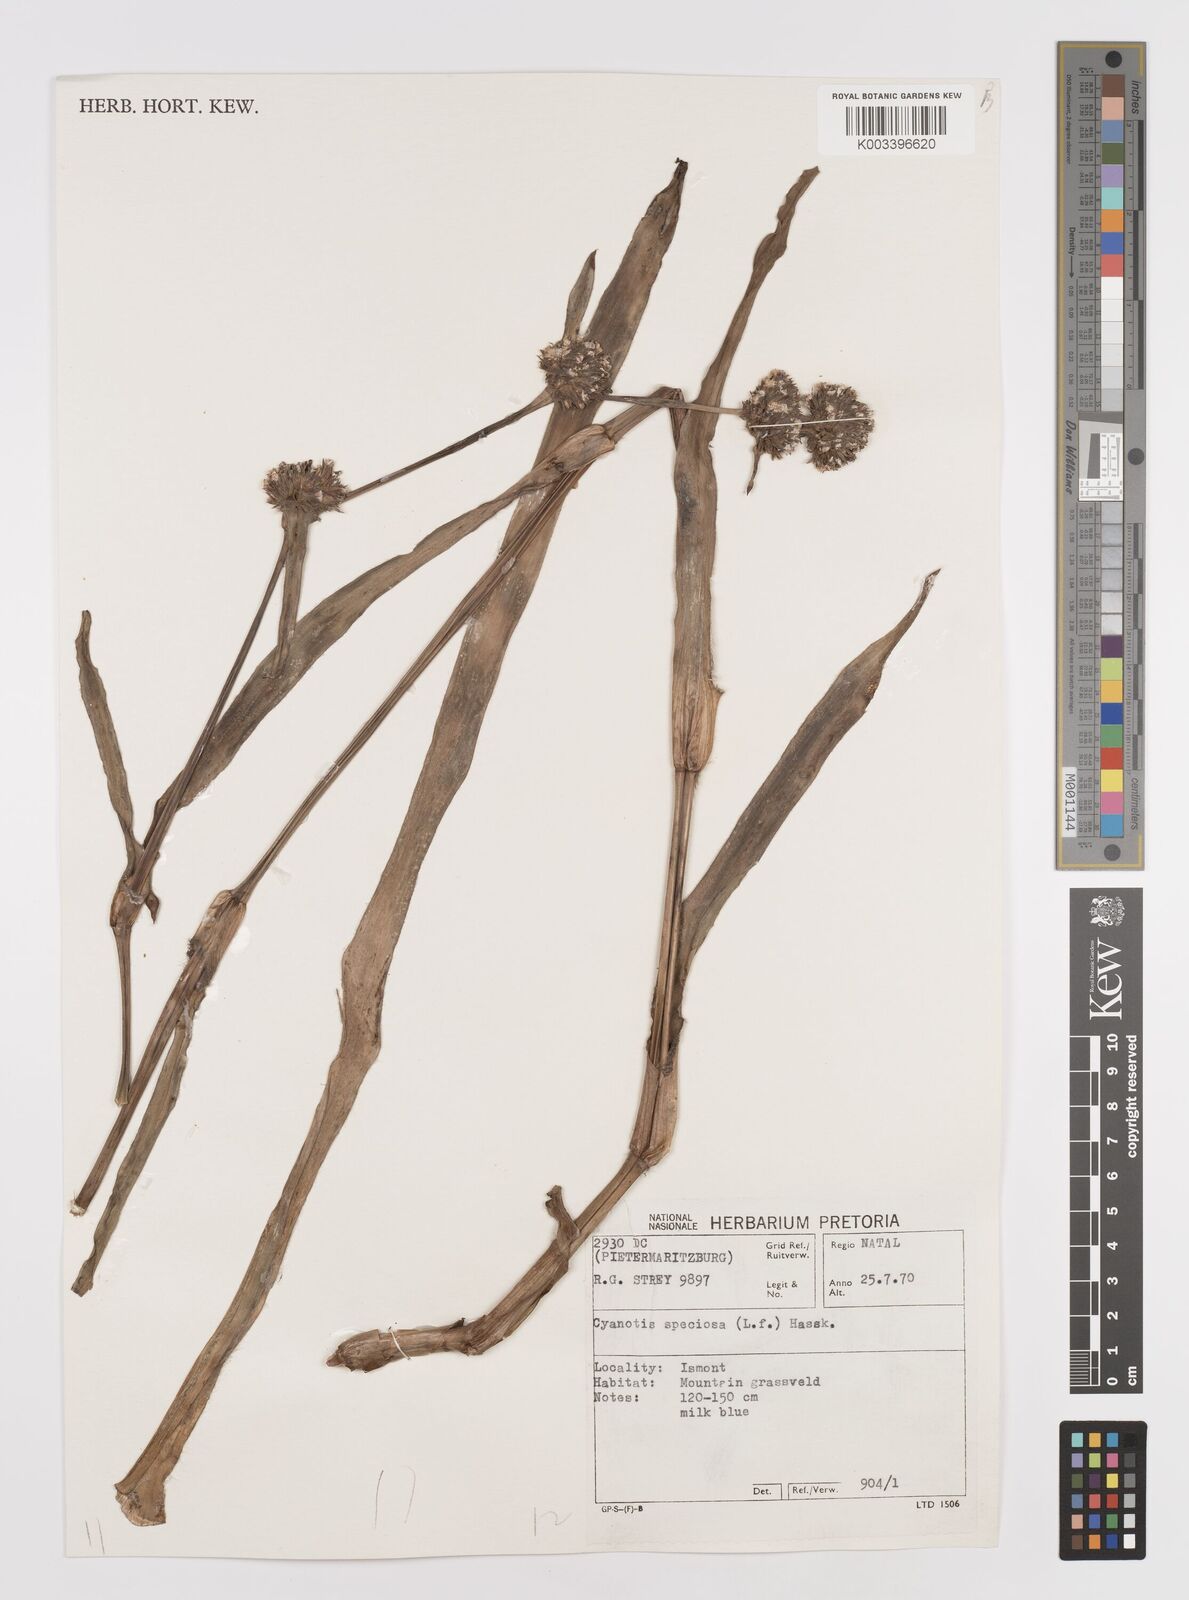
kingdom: Plantae
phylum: Tracheophyta
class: Liliopsida
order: Commelinales
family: Commelinaceae
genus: Cyanotis
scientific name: Cyanotis speciosa
